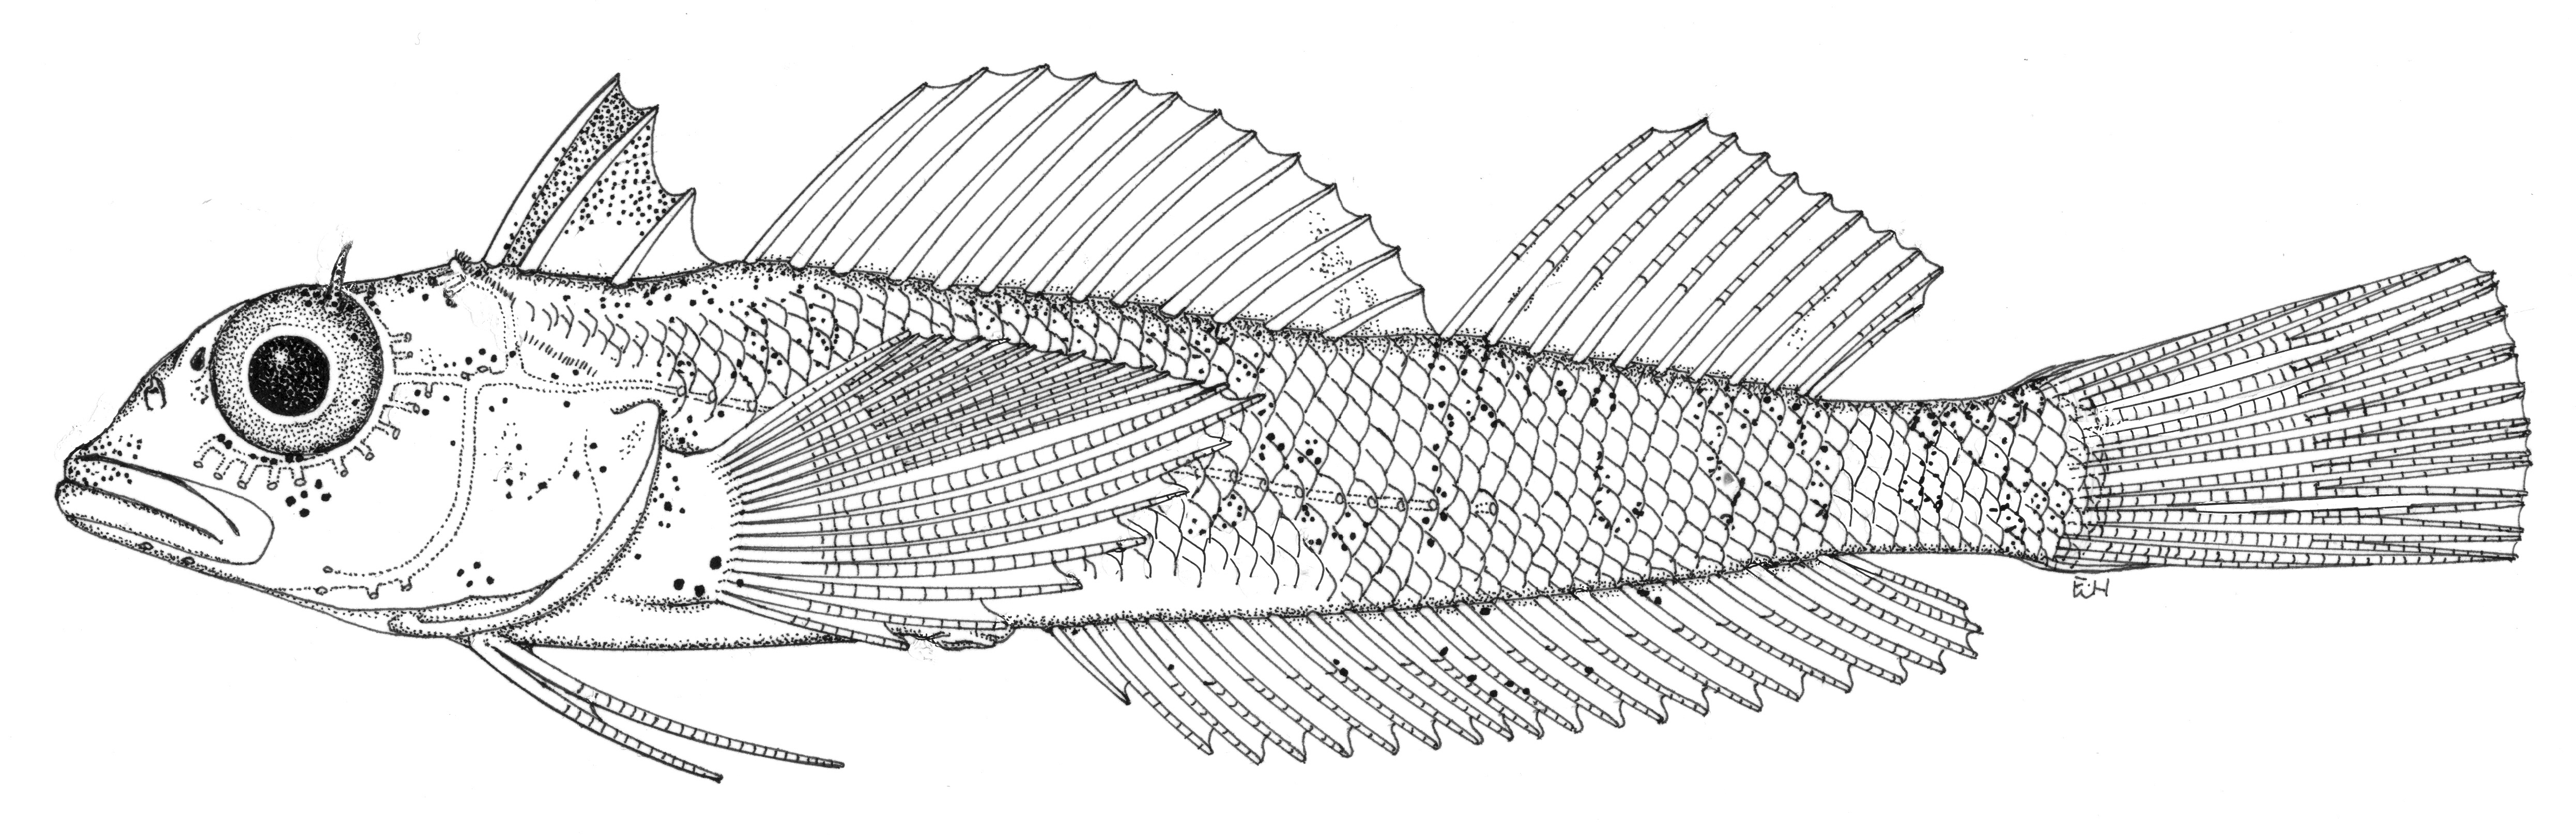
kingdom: Animalia
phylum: Chordata
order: Perciformes
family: Tripterygiidae
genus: Helcogramma
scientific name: Helcogramma microstigma
